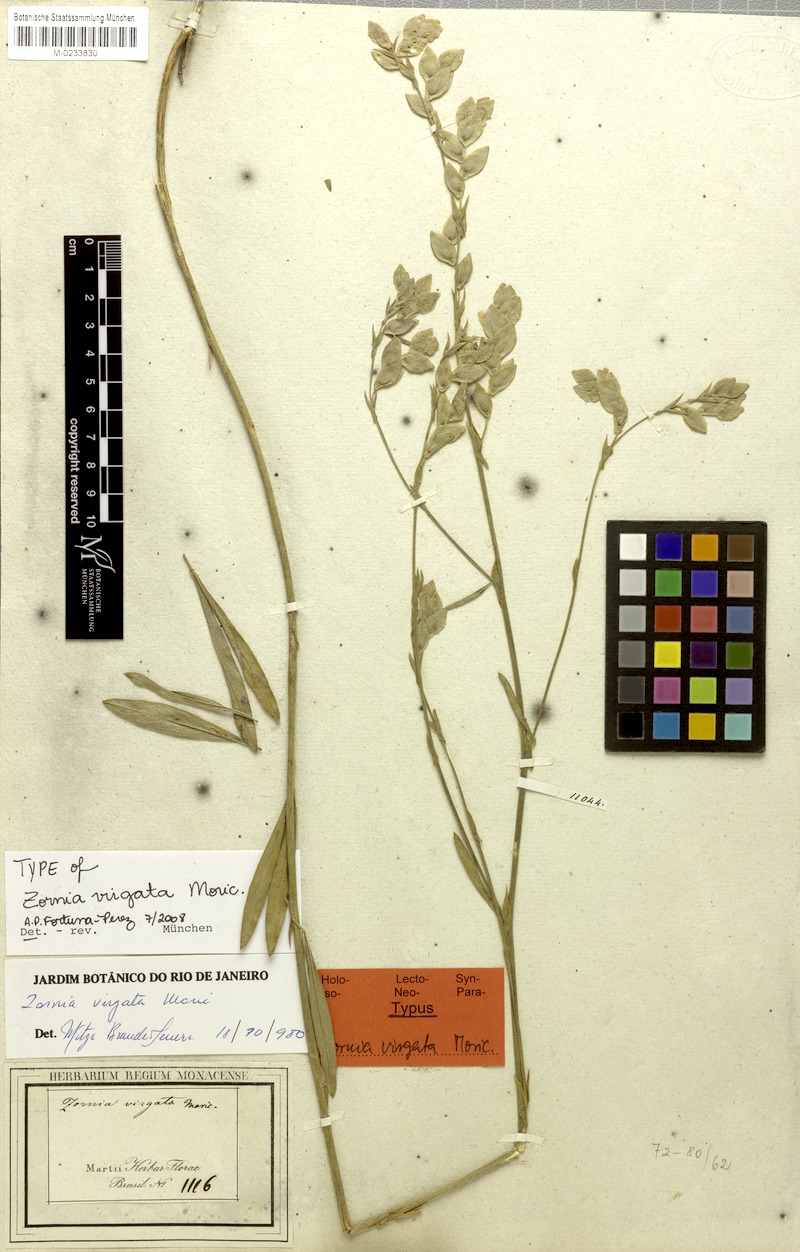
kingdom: Plantae
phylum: Tracheophyta
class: Magnoliopsida
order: Fabales
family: Fabaceae
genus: Zornia
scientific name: Zornia virgata
